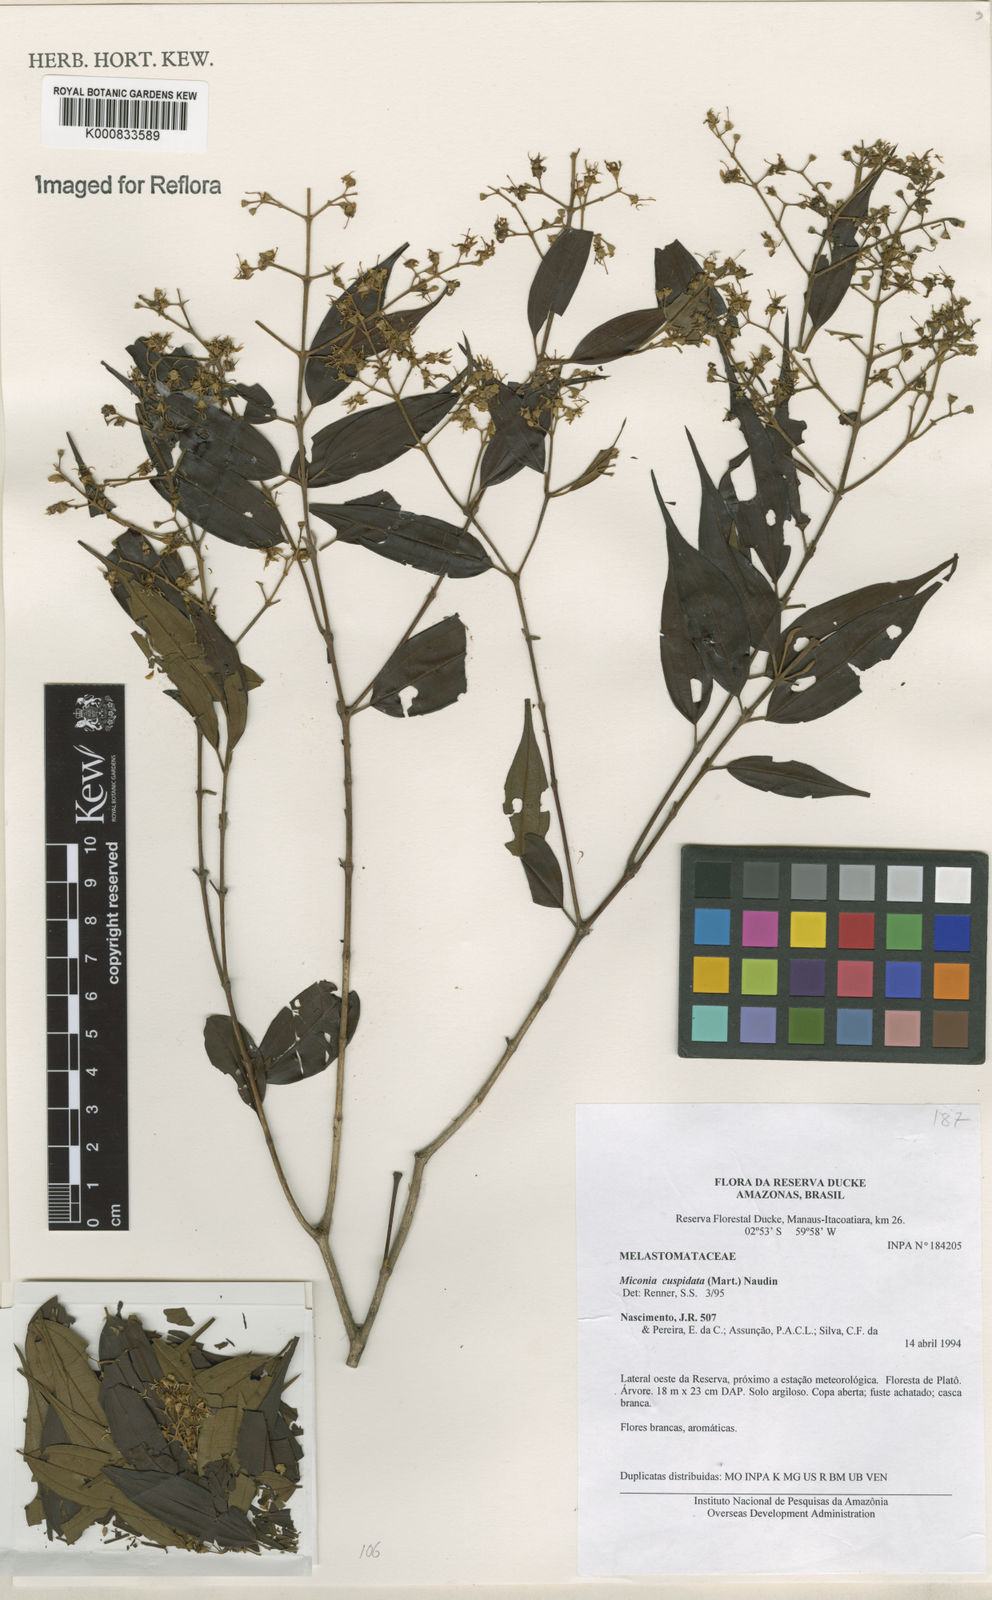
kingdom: Plantae
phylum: Tracheophyta
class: Magnoliopsida
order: Myrtales
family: Melastomataceae
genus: Miconia
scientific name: Miconia cuspidata
